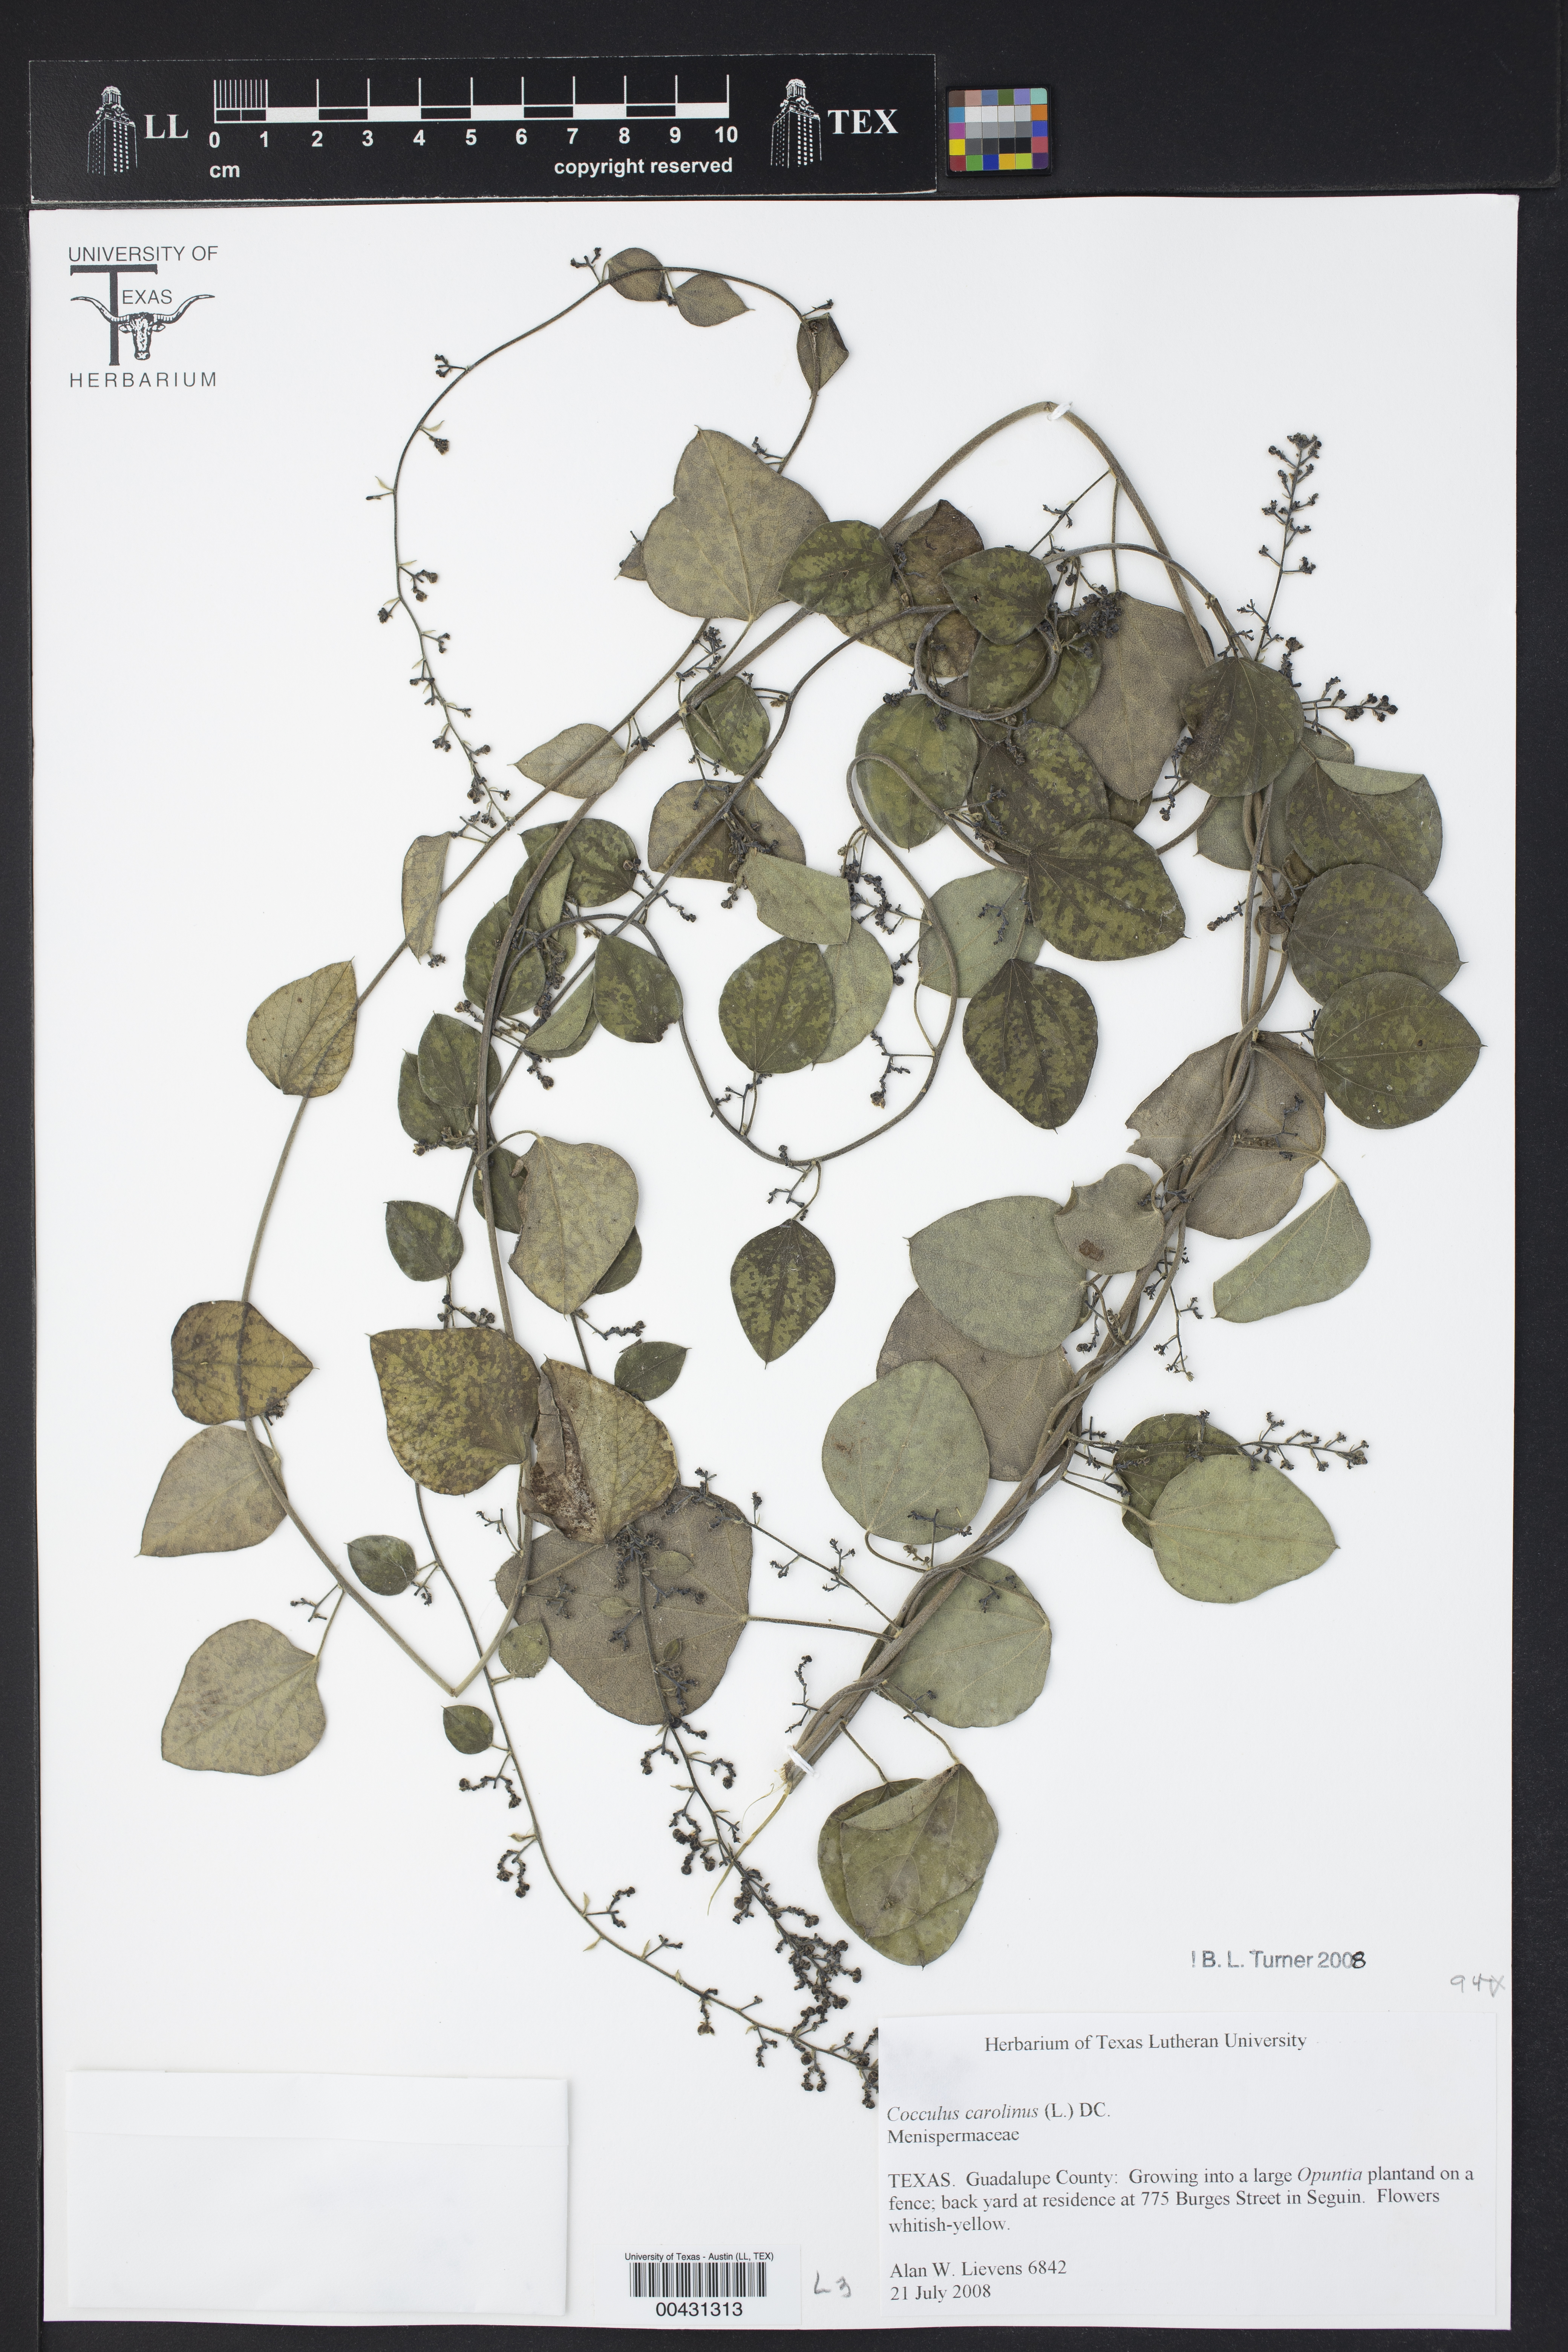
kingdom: Plantae
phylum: Tracheophyta
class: Magnoliopsida
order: Ranunculales
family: Menispermaceae
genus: Cocculus
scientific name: Cocculus carolinus
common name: Carolina moonseed
